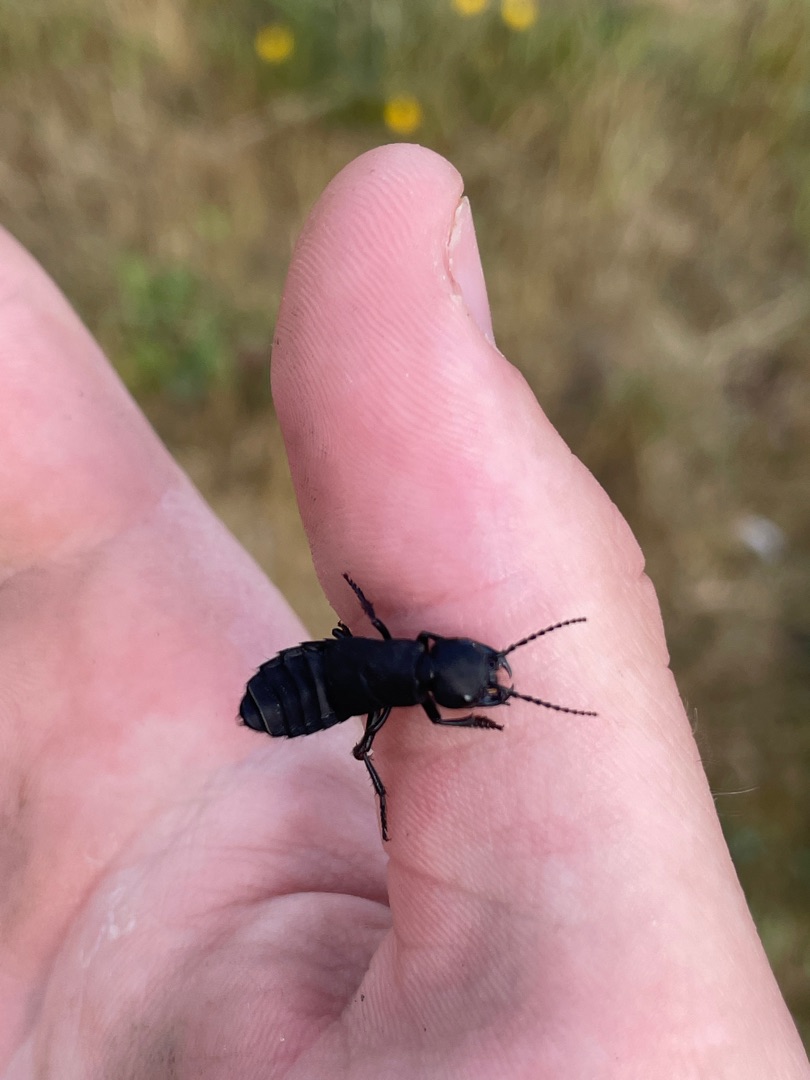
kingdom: Animalia
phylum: Arthropoda
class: Insecta
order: Coleoptera
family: Staphylinidae
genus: Ocypus
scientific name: Ocypus olens
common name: Stor rovbille
